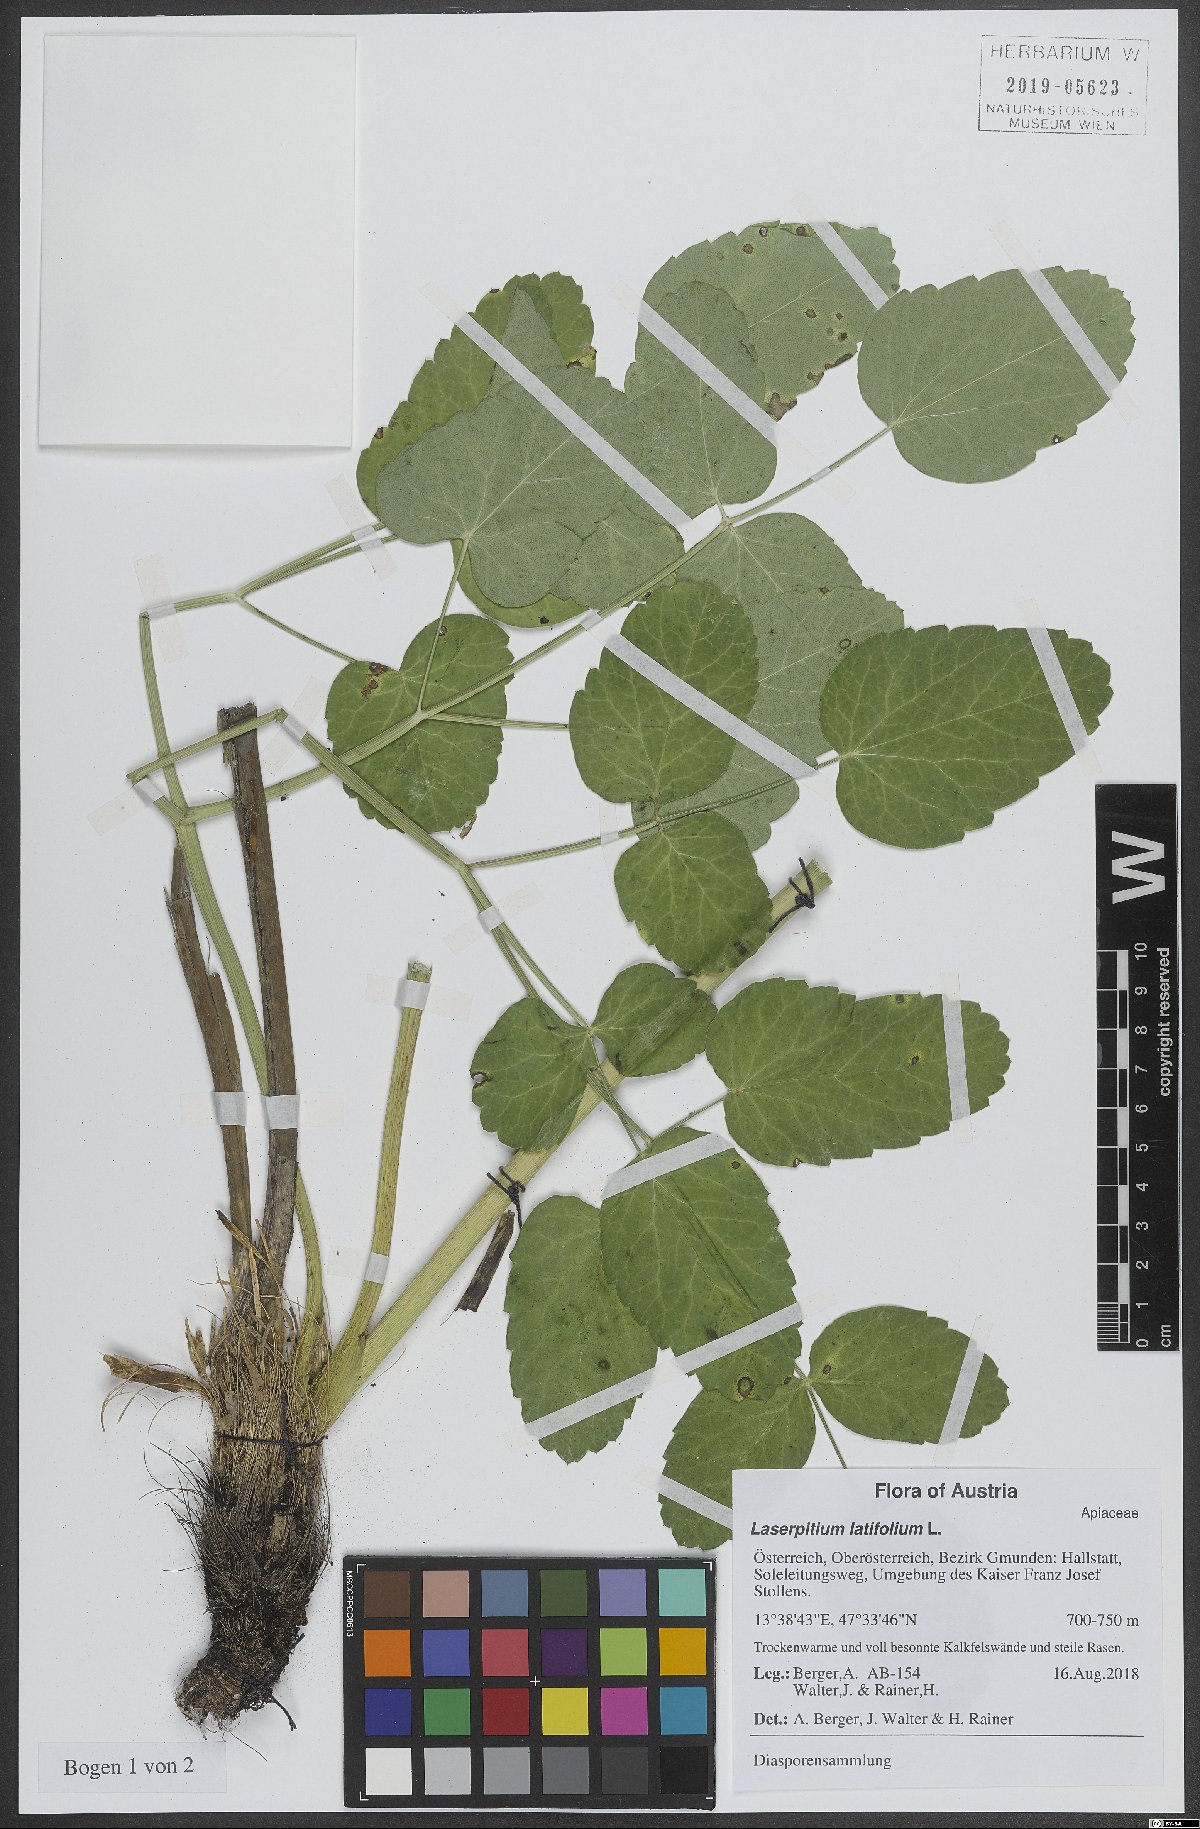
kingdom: Plantae
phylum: Tracheophyta
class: Magnoliopsida
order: Apiales
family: Apiaceae
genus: Laserpitium
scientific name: Laserpitium latifolium
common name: Broadleaf sermountain
